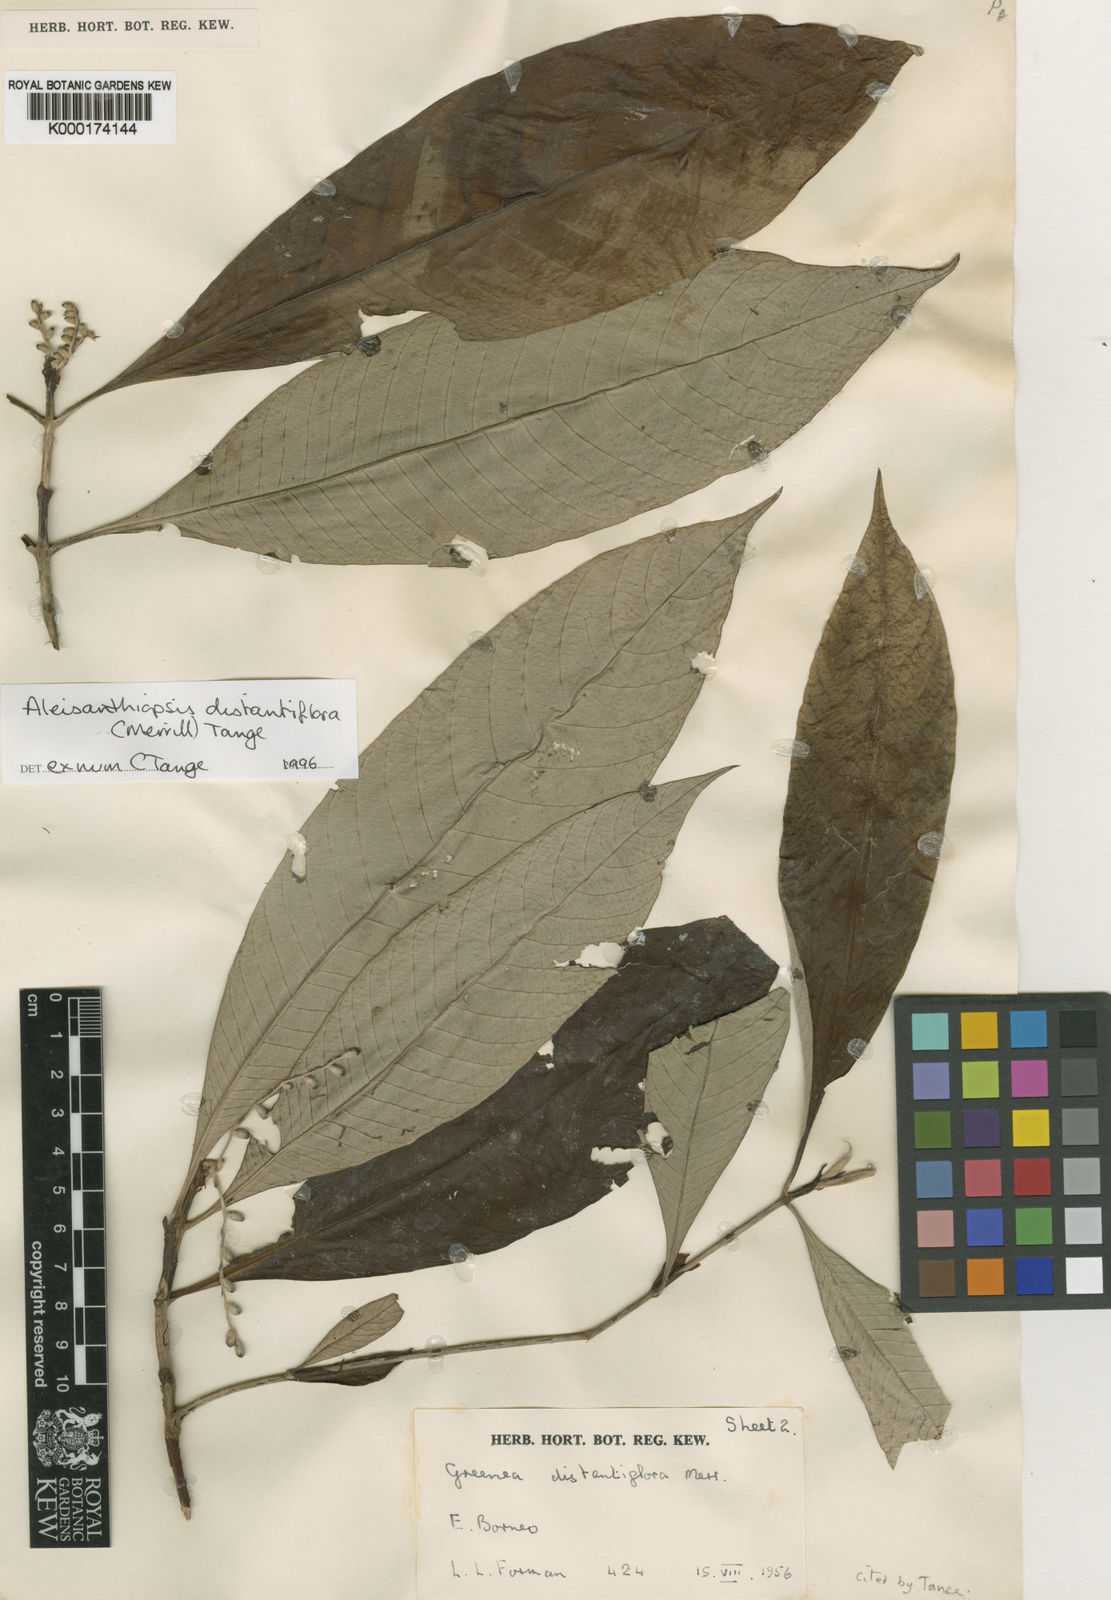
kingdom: Plantae
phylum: Tracheophyta
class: Magnoliopsida
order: Gentianales
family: Rubiaceae
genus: Aleisanthiopsis
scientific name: Aleisanthiopsis distantiflora
